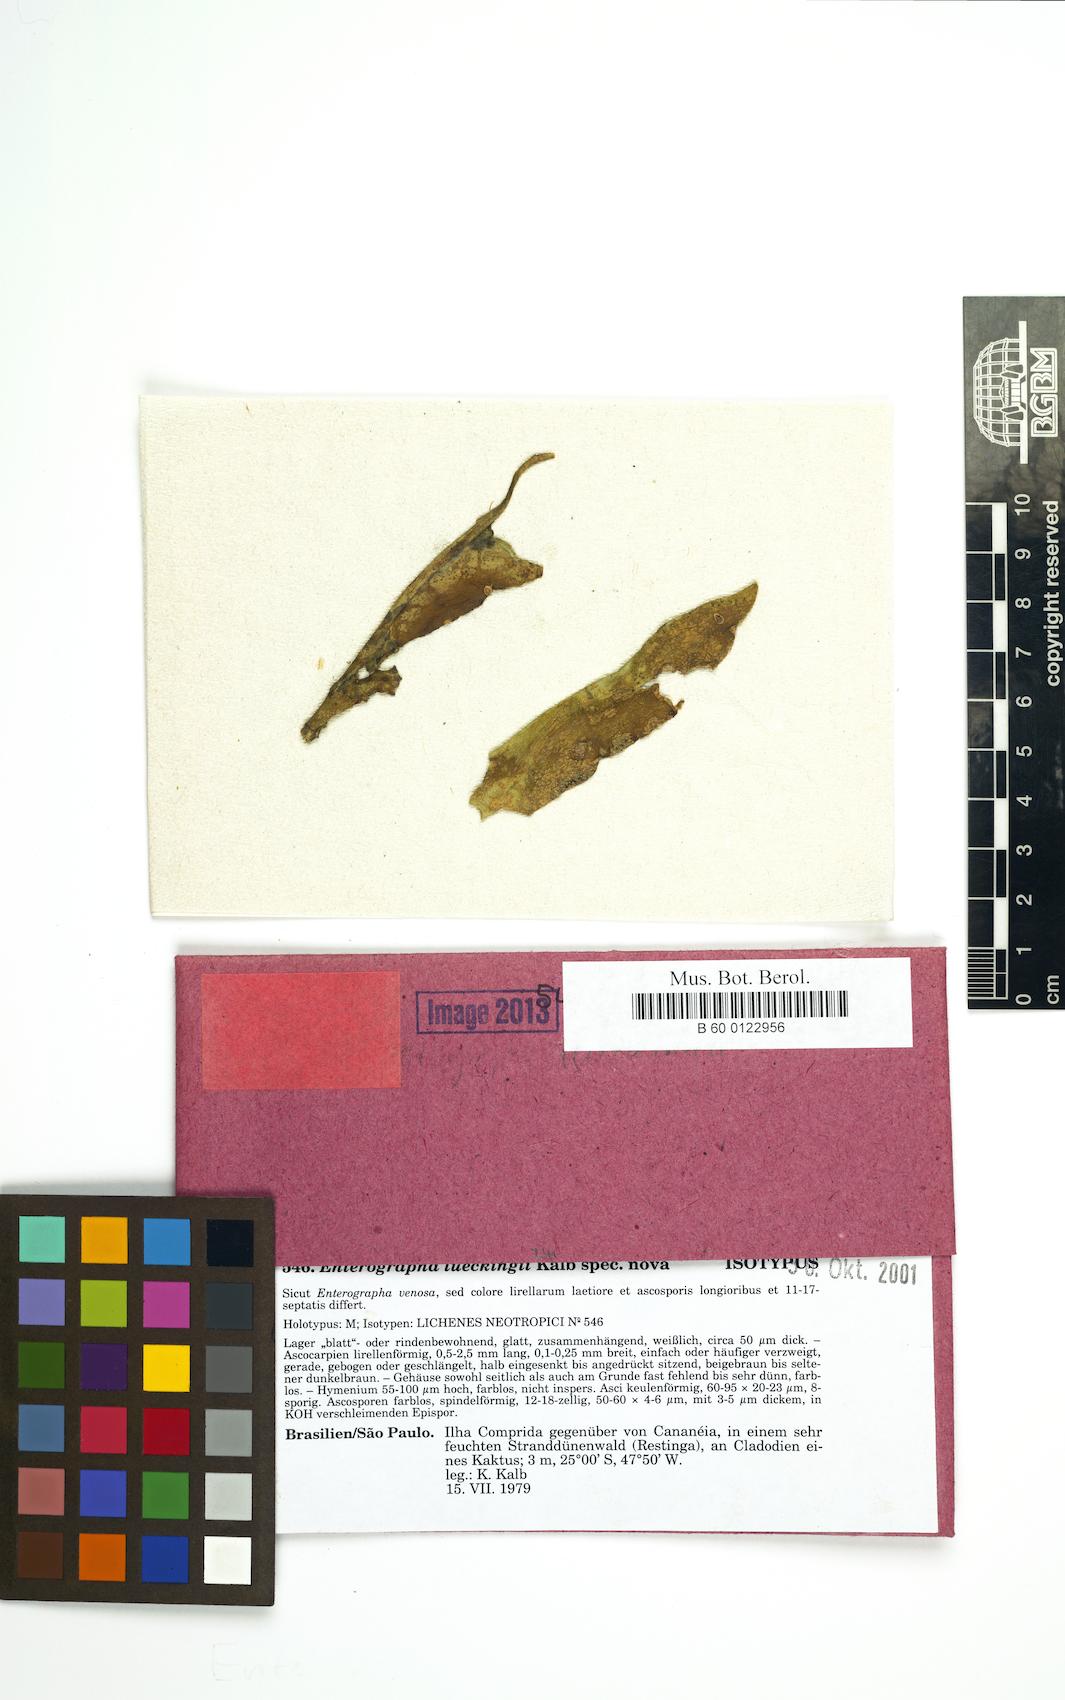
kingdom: Fungi
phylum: Ascomycota
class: Arthoniomycetes
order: Arthoniales
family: Roccellaceae
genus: Enterographa
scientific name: Enterographa lueckingii
